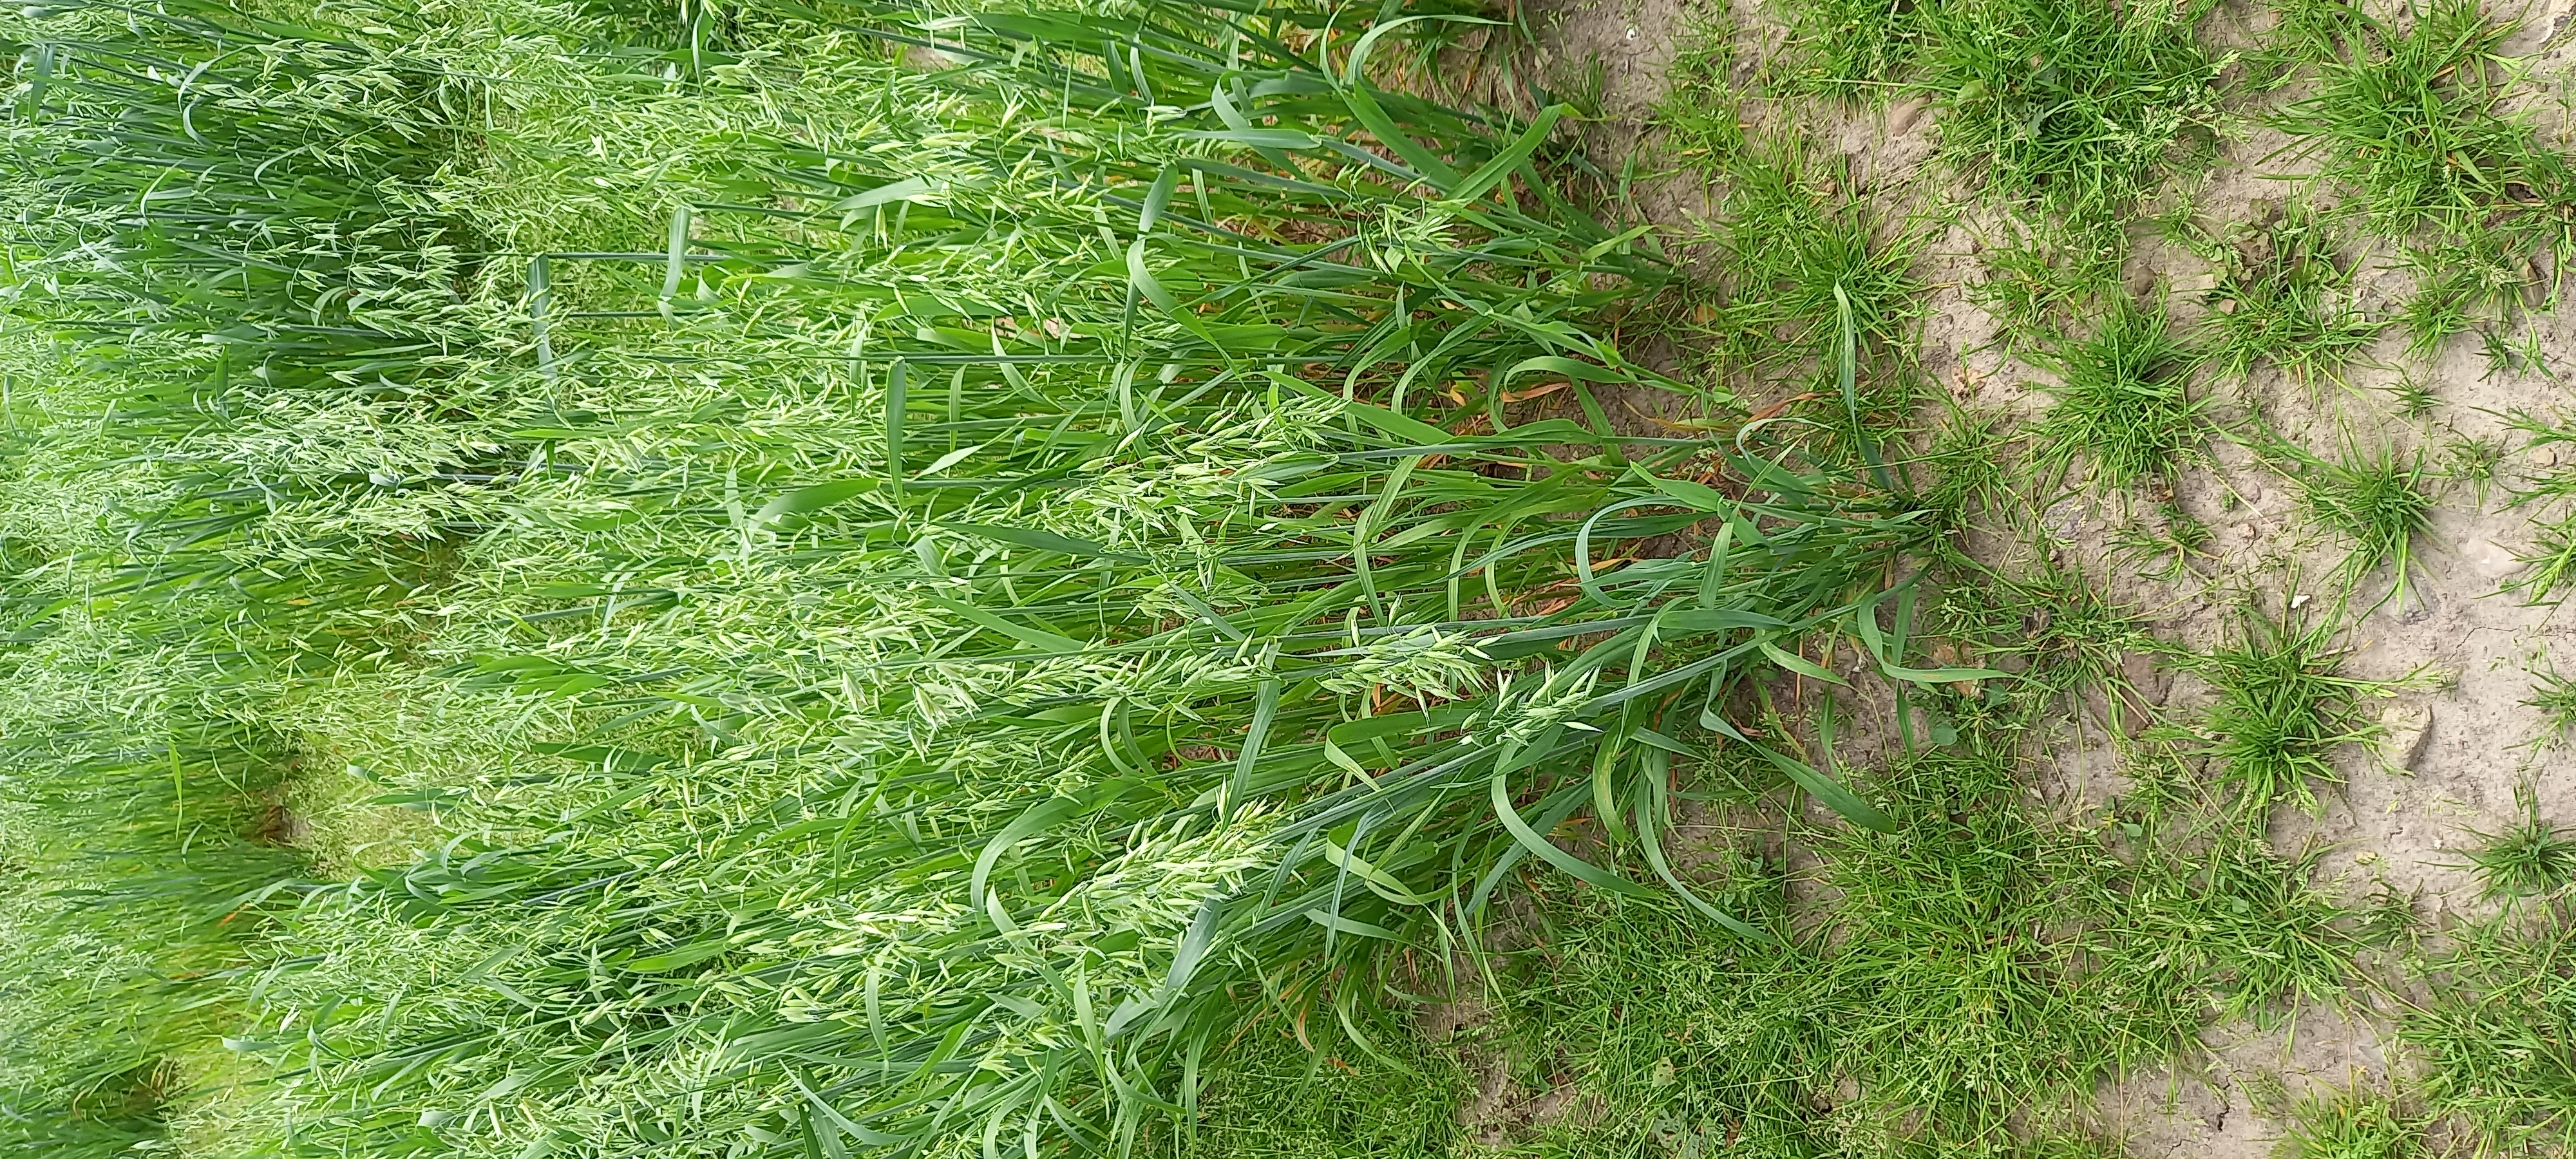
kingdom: Plantae
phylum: Tracheophyta
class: Liliopsida
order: Poales
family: Poaceae
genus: Avena
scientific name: Avena sativa
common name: Oat
